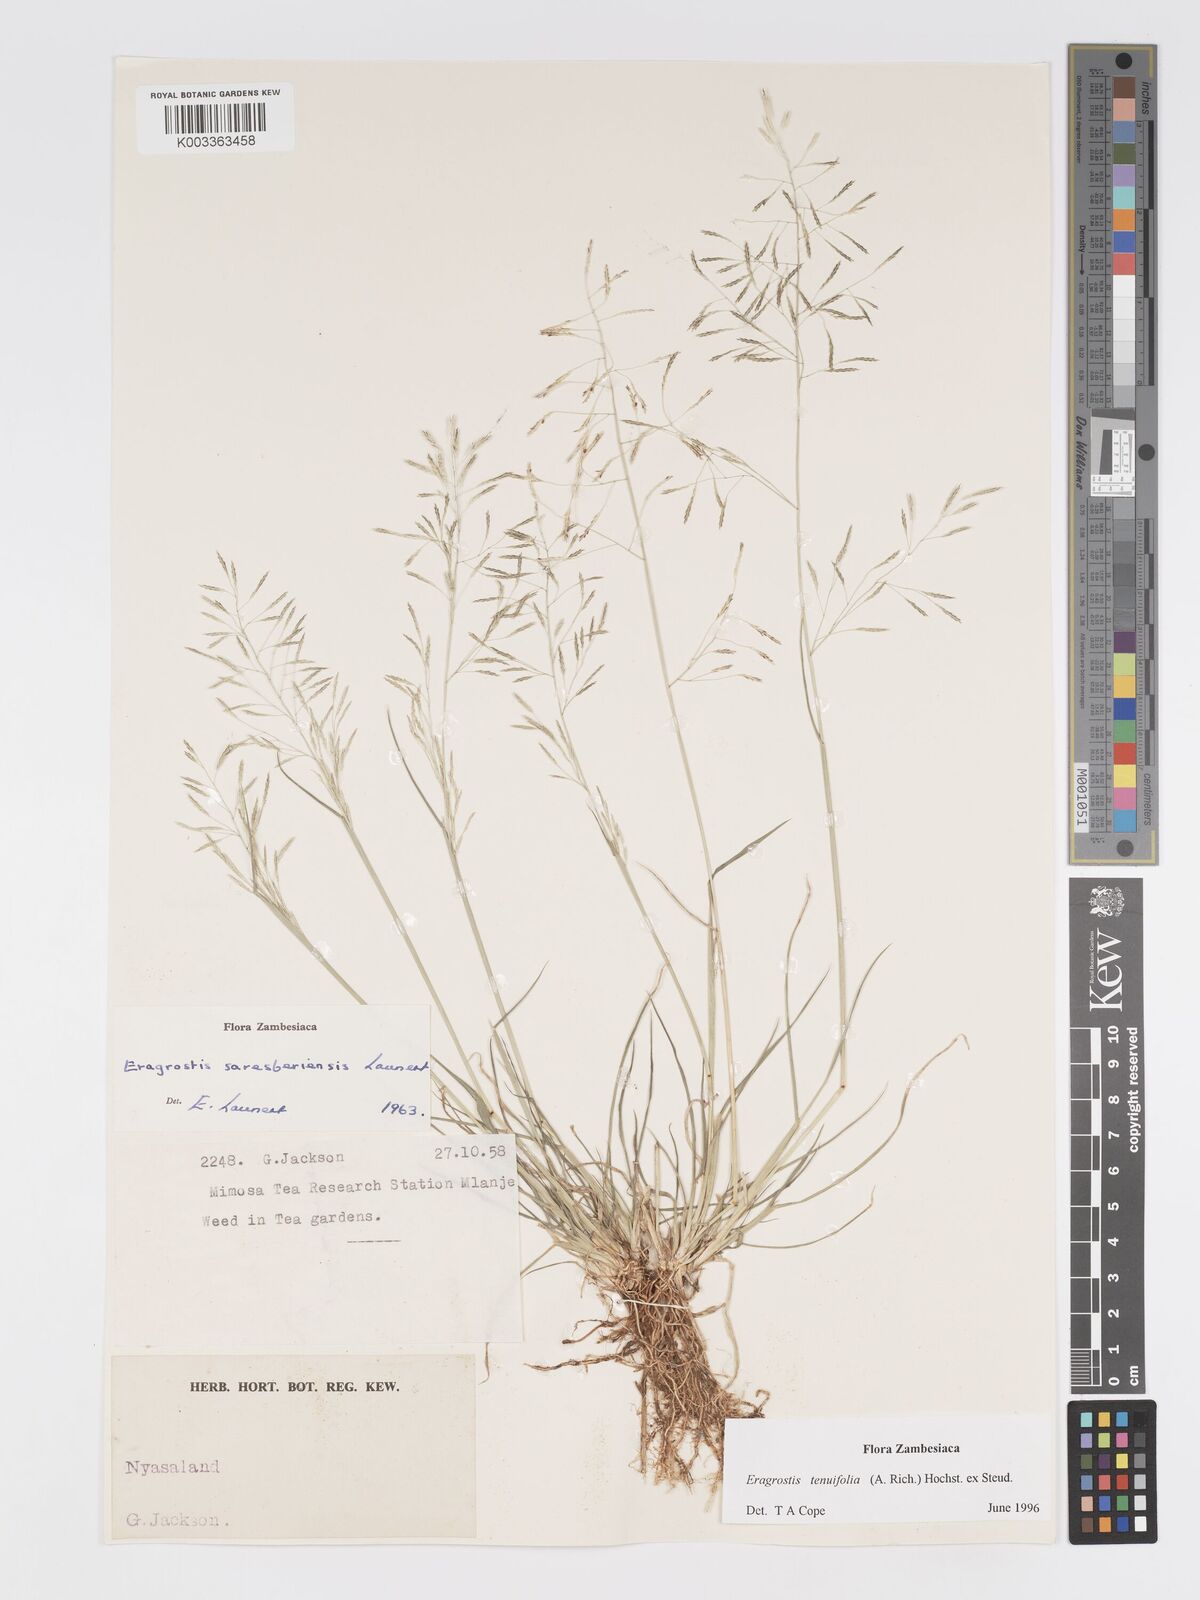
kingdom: Plantae
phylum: Tracheophyta
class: Liliopsida
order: Poales
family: Poaceae
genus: Eragrostis
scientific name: Eragrostis tenuifolia
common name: Elastic grass
